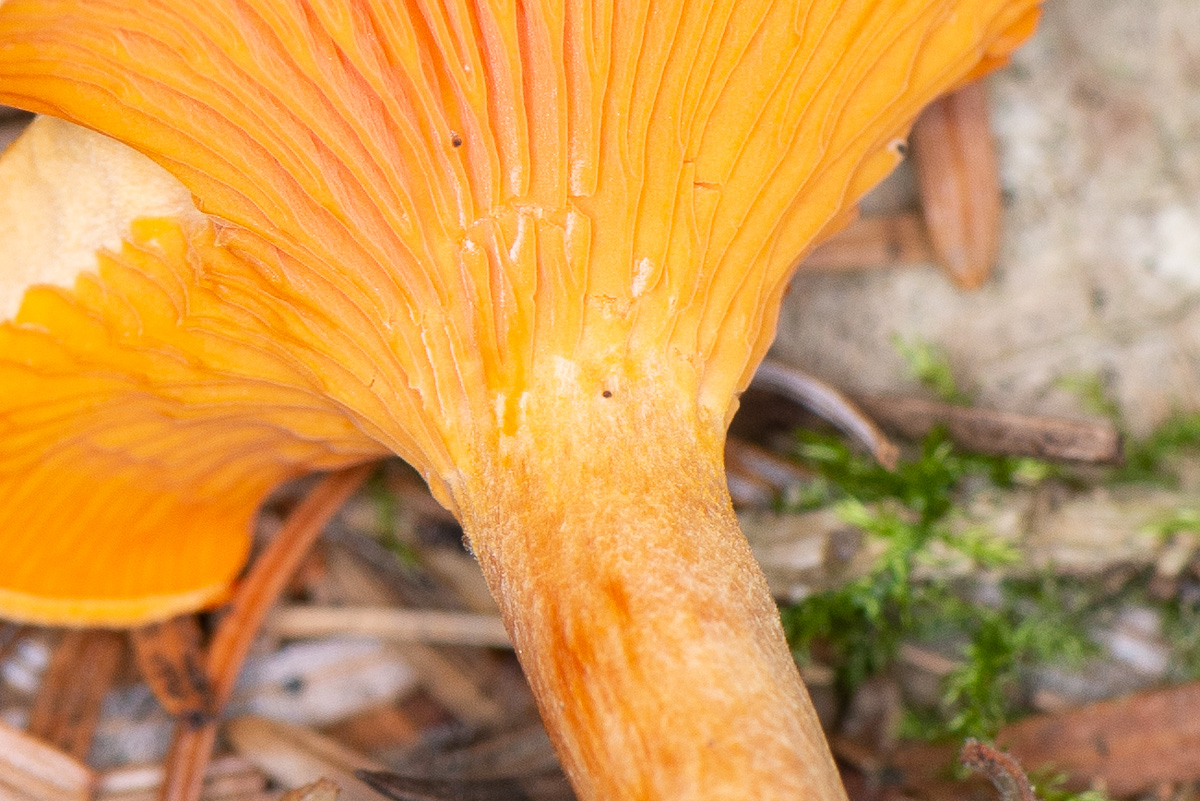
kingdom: Fungi
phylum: Basidiomycota
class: Agaricomycetes
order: Boletales
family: Hygrophoropsidaceae
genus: Hygrophoropsis
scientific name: Hygrophoropsis aurantiaca
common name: almindelig orangekantarel
